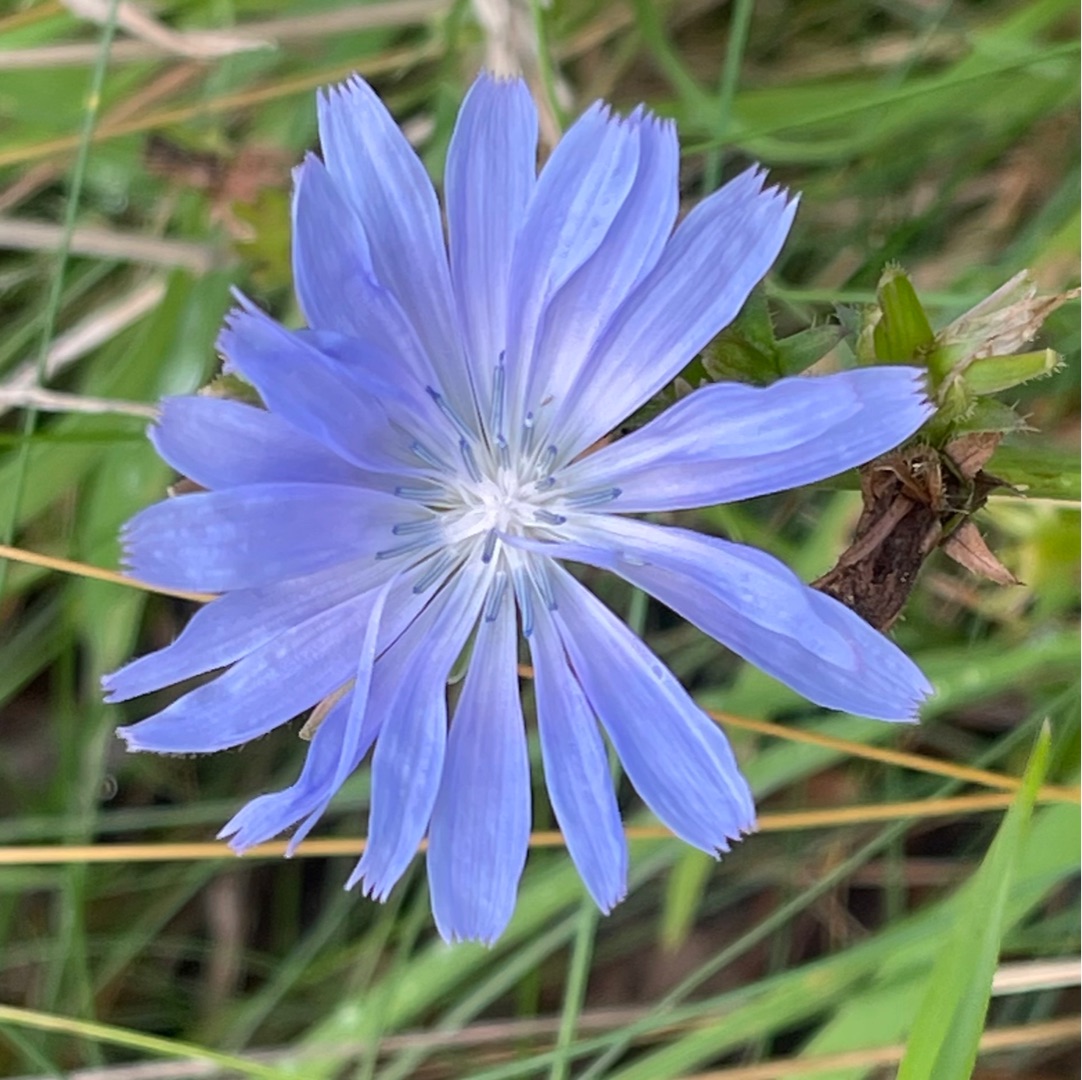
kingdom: Plantae
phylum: Tracheophyta
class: Magnoliopsida
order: Asterales
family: Asteraceae
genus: Cichorium
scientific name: Cichorium intybus
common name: Cikorie
